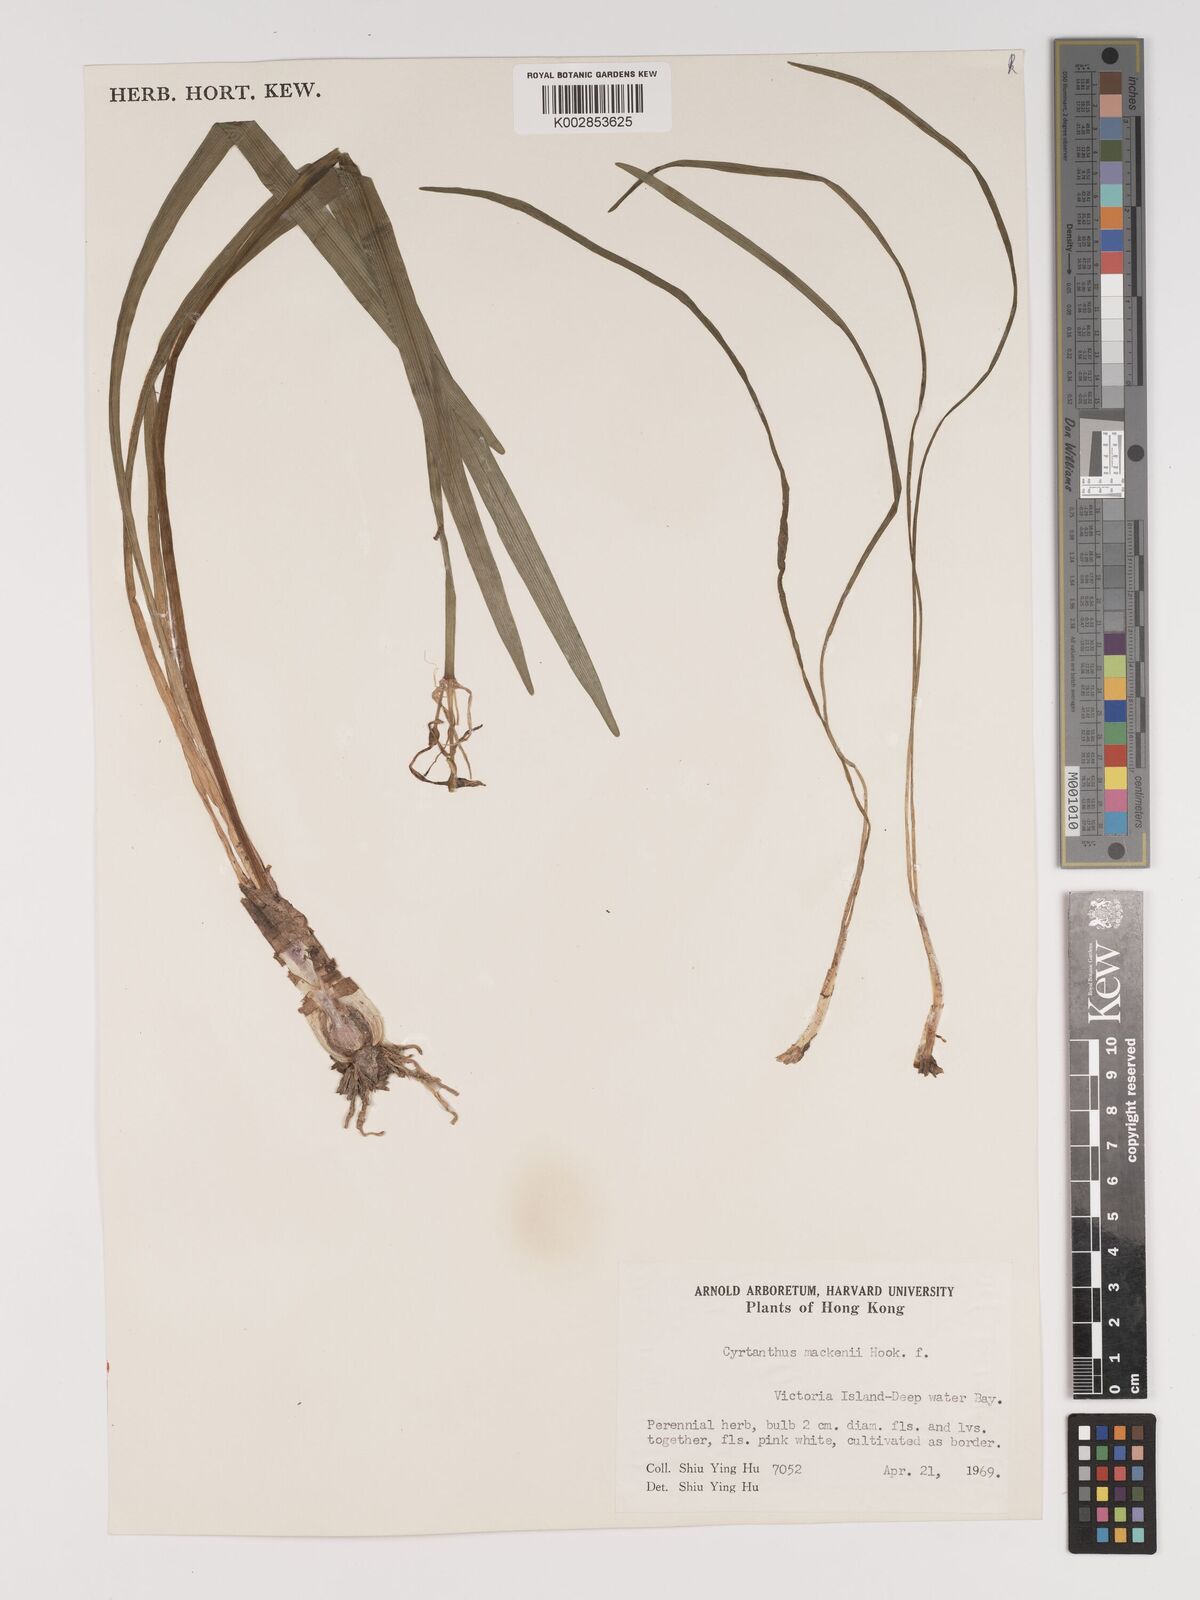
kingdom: Plantae
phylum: Tracheophyta
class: Liliopsida
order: Asparagales
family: Amaryllidaceae
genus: Cyrtanthus
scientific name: Cyrtanthus mackenii
